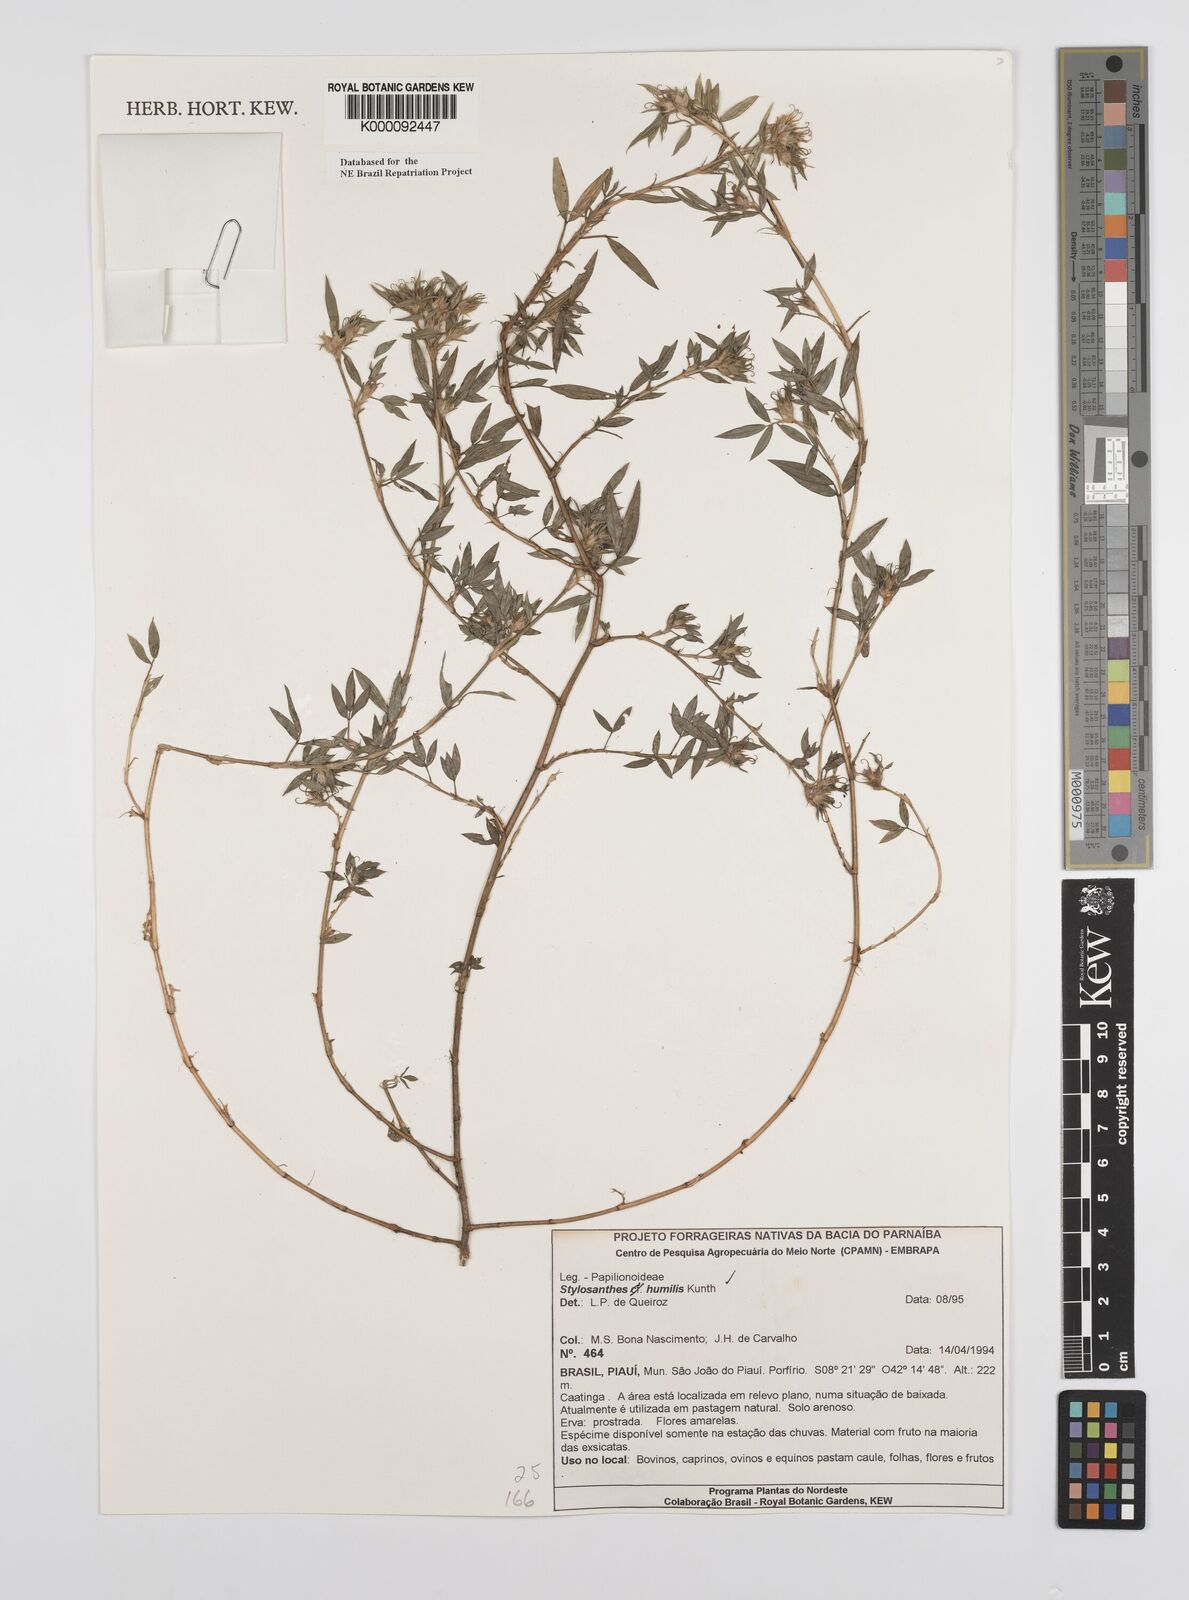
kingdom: Plantae
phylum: Tracheophyta
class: Magnoliopsida
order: Fabales
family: Fabaceae
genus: Stylosanthes
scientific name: Stylosanthes humilis
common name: Townsville stylo
